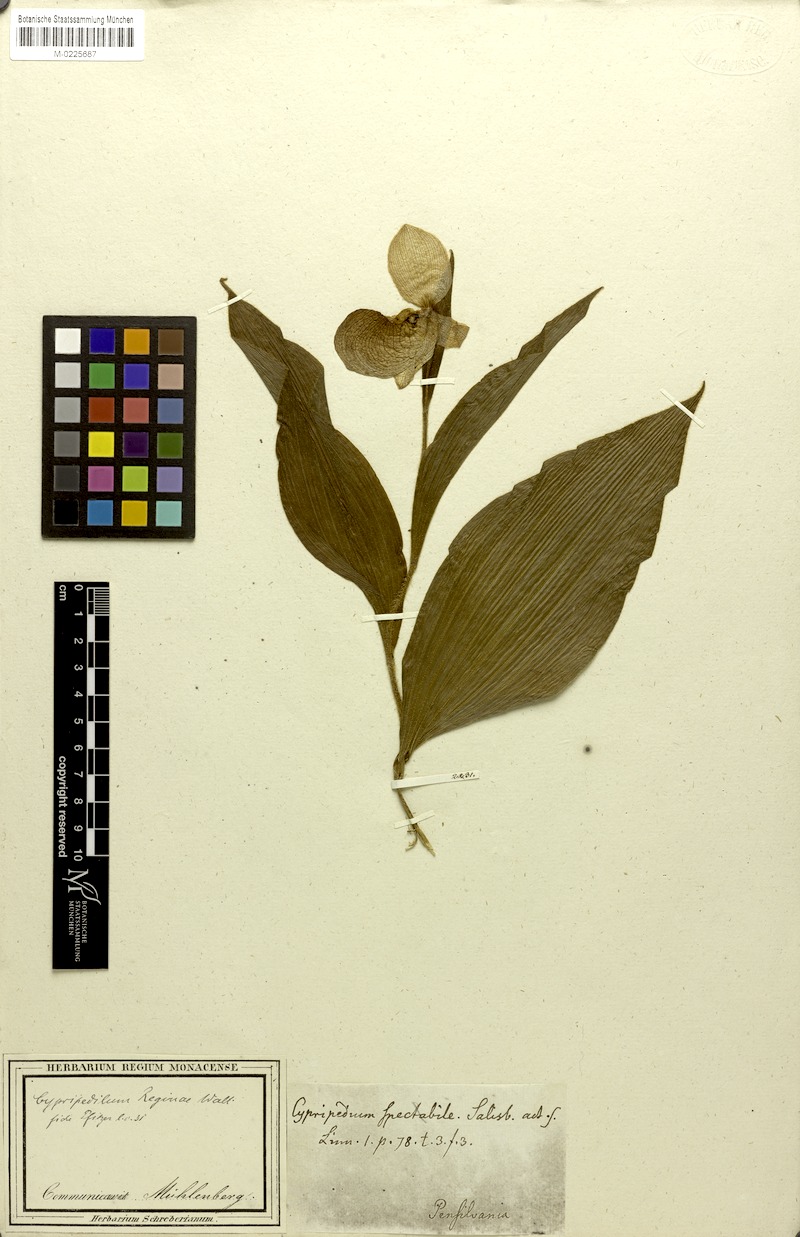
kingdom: Plantae
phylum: Tracheophyta
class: Liliopsida
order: Asparagales
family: Orchidaceae
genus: Cypripedium
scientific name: Cypripedium reginae
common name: Queen lady's-slipper
